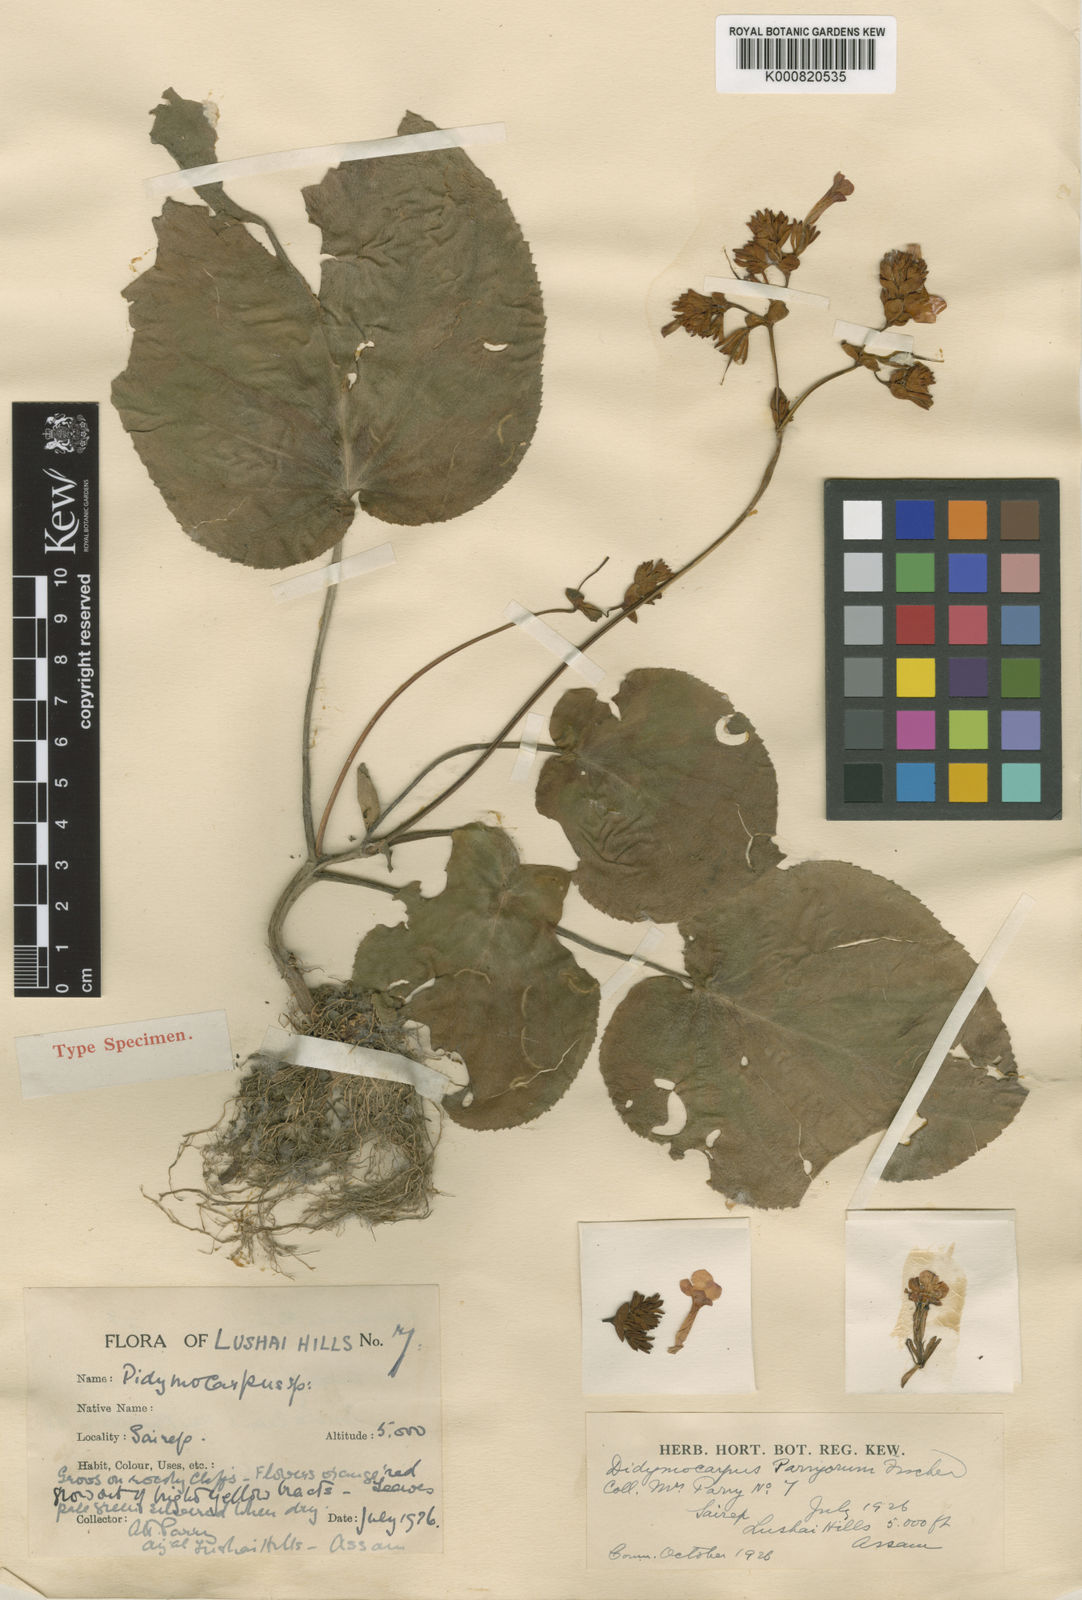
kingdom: Plantae
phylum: Tracheophyta
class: Magnoliopsida
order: Lamiales
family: Gesneriaceae
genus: Didymocarpus
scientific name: Didymocarpus parryorum
